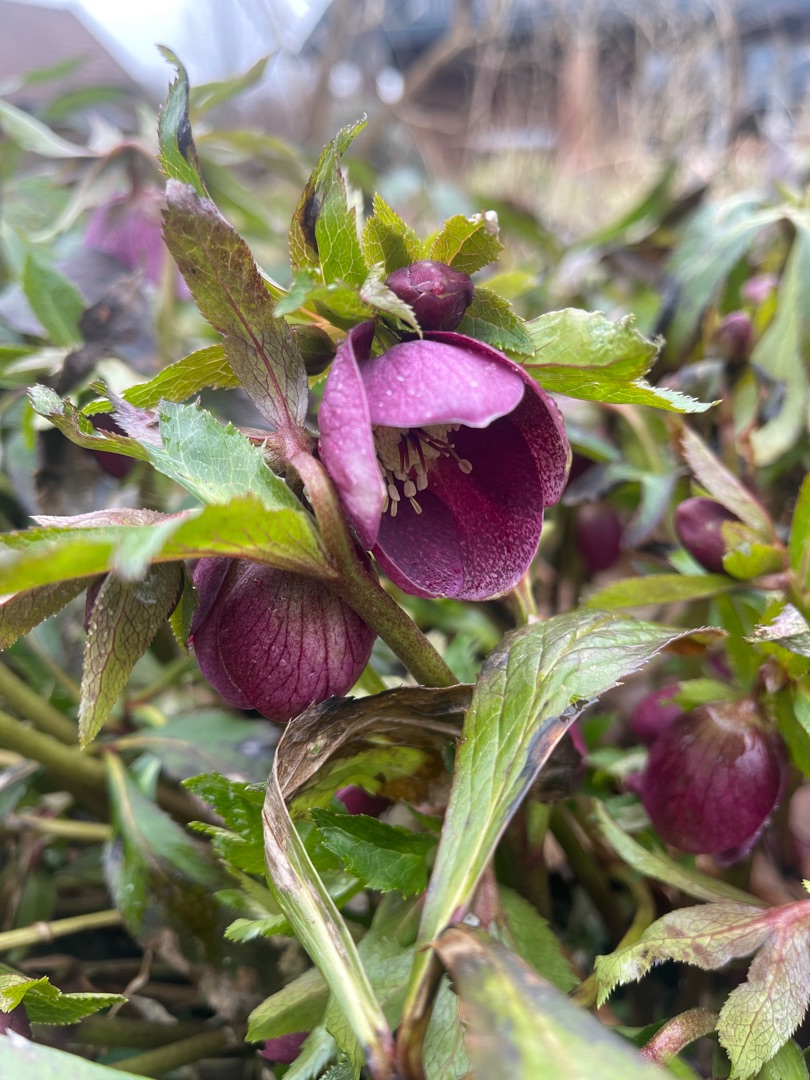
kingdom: Plantae
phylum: Tracheophyta
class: Magnoliopsida
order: Ranunculales
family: Ranunculaceae
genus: Helleborus
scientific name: Helleborus orientalis
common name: Rød julerose
